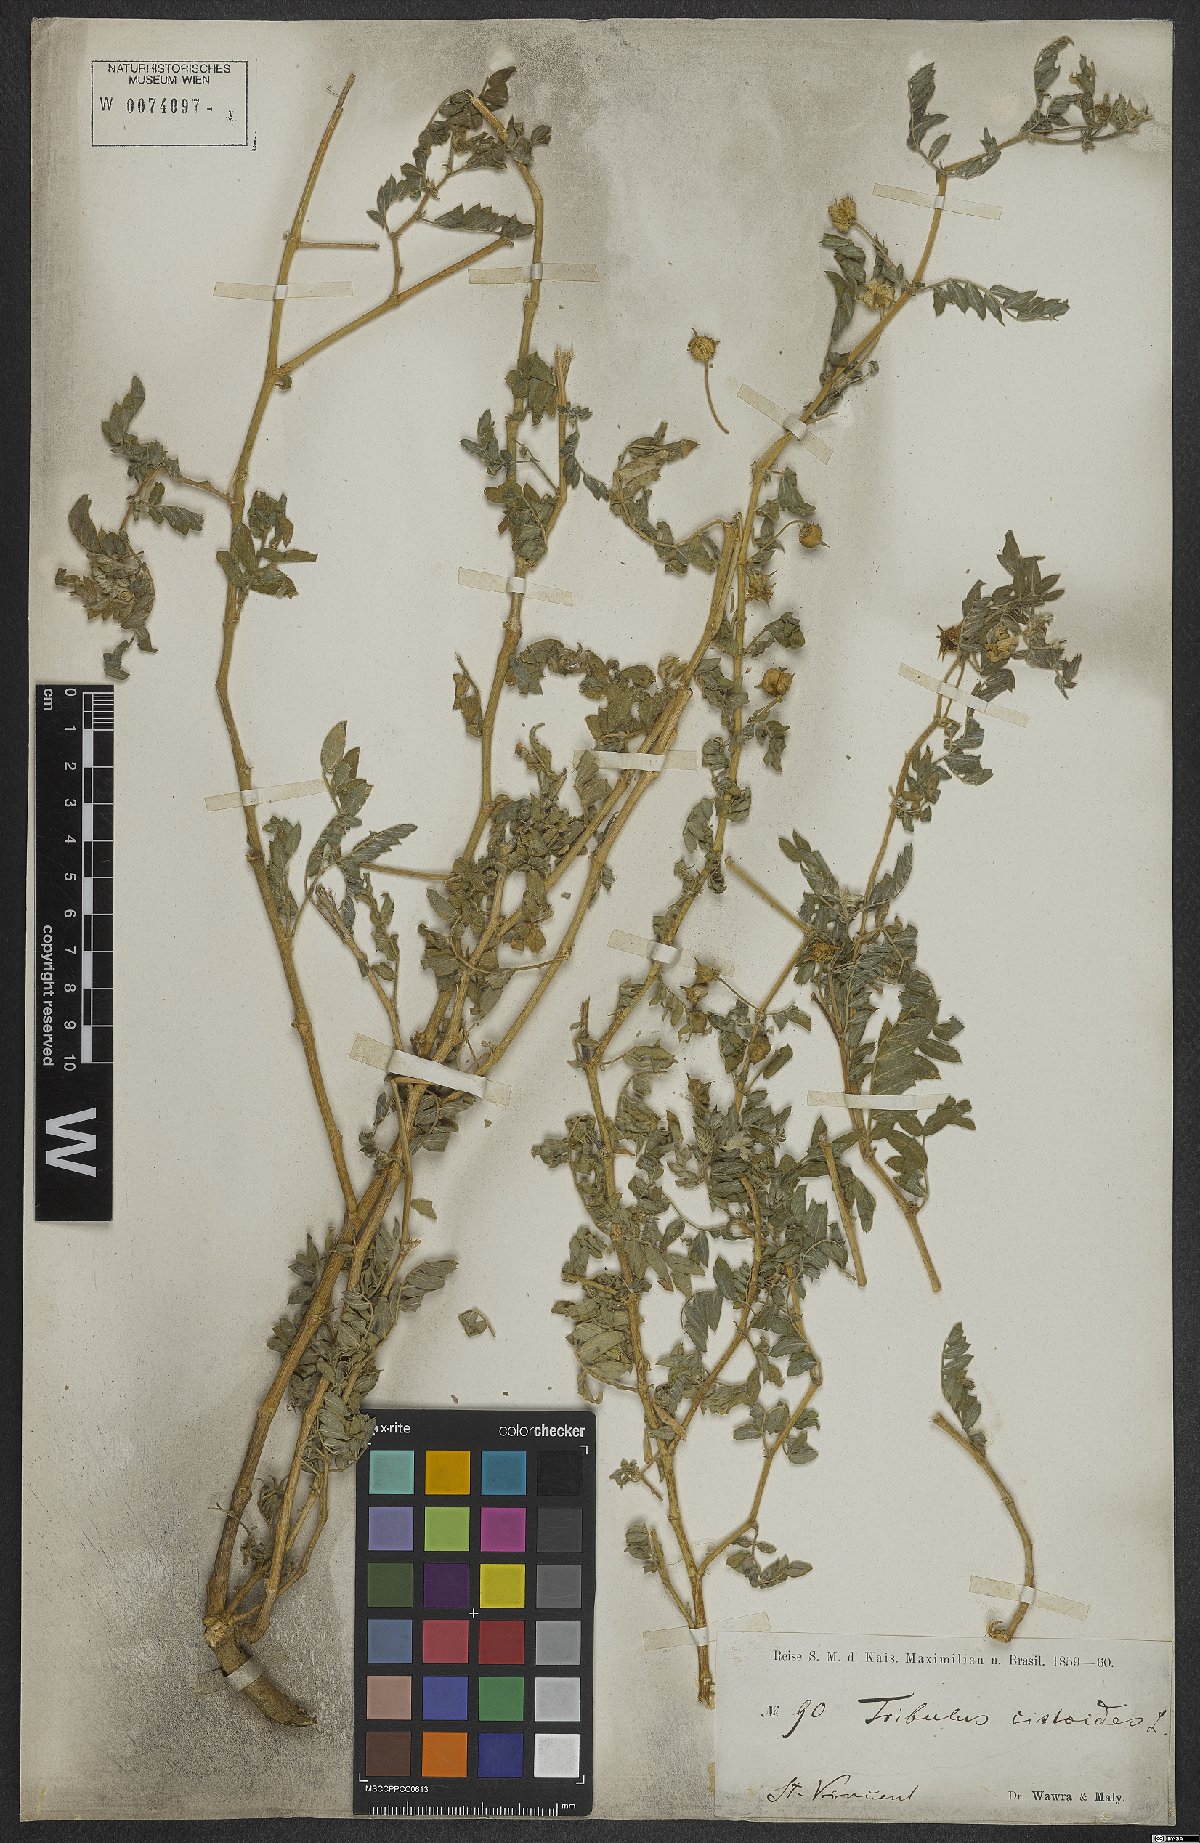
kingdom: Plantae
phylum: Tracheophyta
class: Magnoliopsida
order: Zygophyllales
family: Zygophyllaceae
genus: Tribulus
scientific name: Tribulus cistoides
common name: Jamaican feverplant
